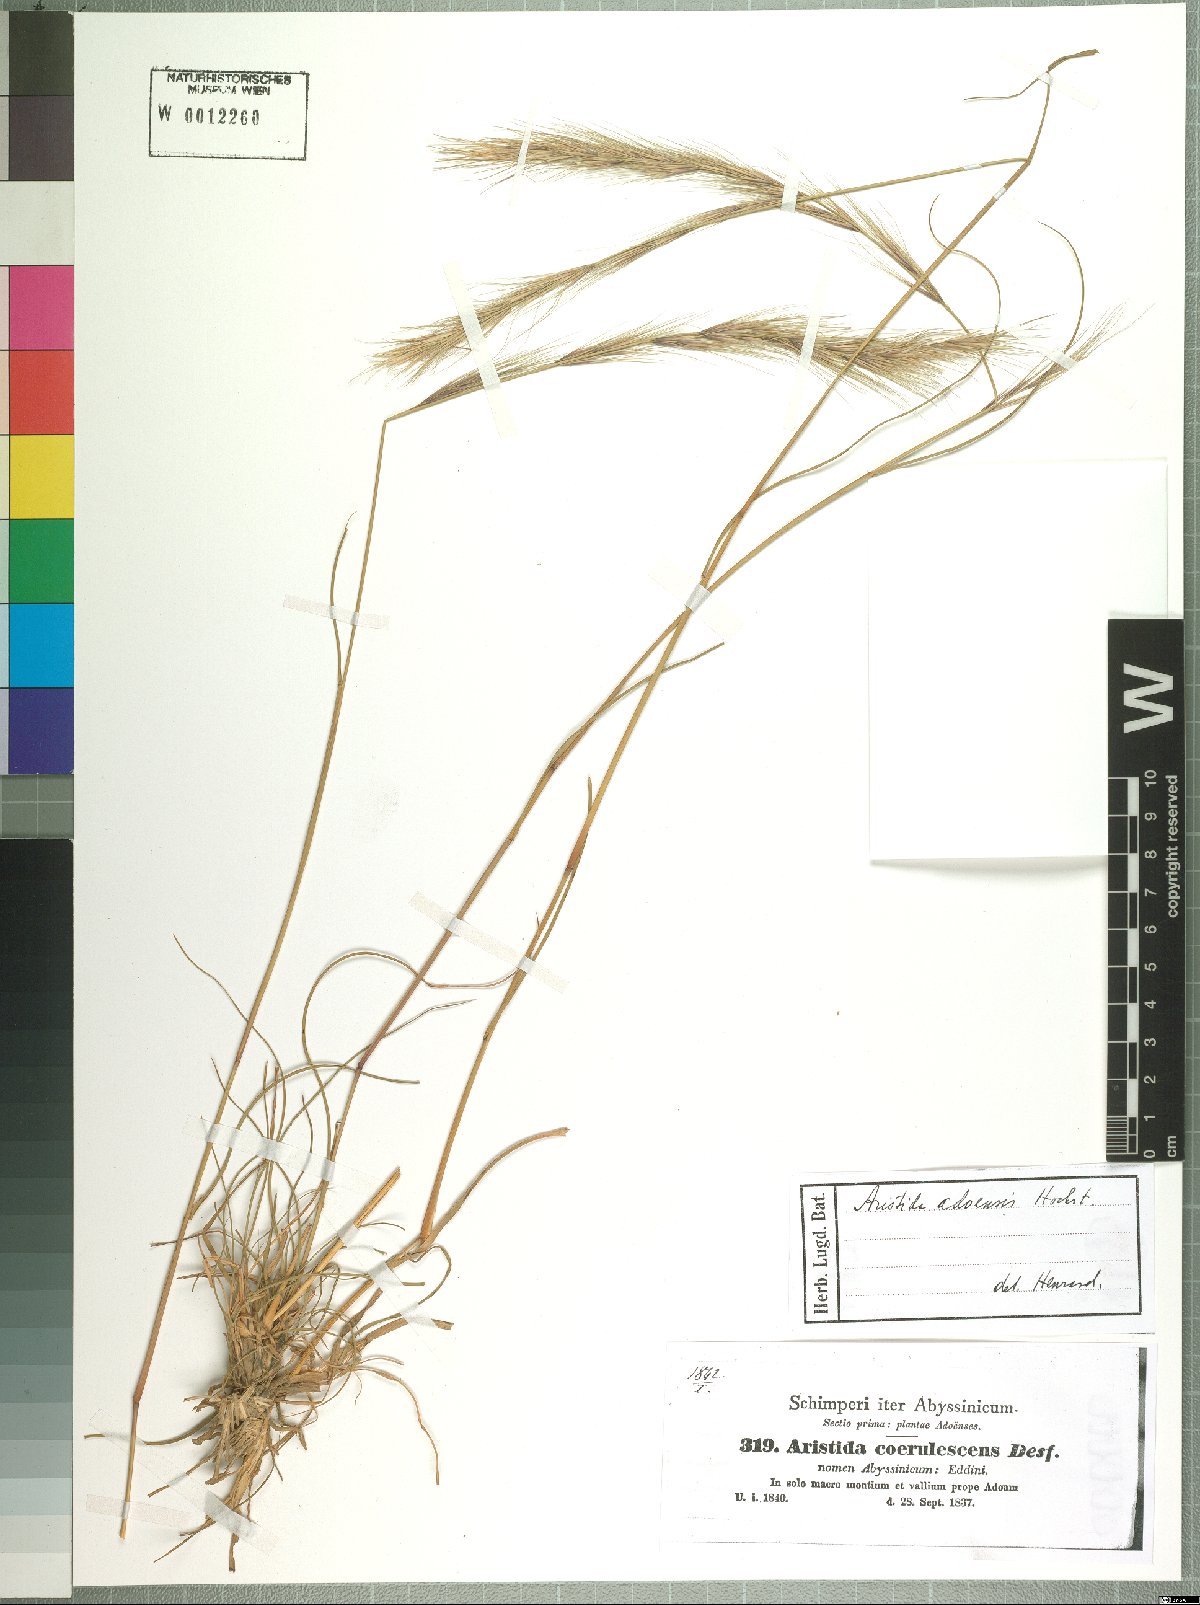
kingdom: Plantae
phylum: Tracheophyta
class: Liliopsida
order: Poales
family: Poaceae
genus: Aristida
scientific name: Aristida adoensis
